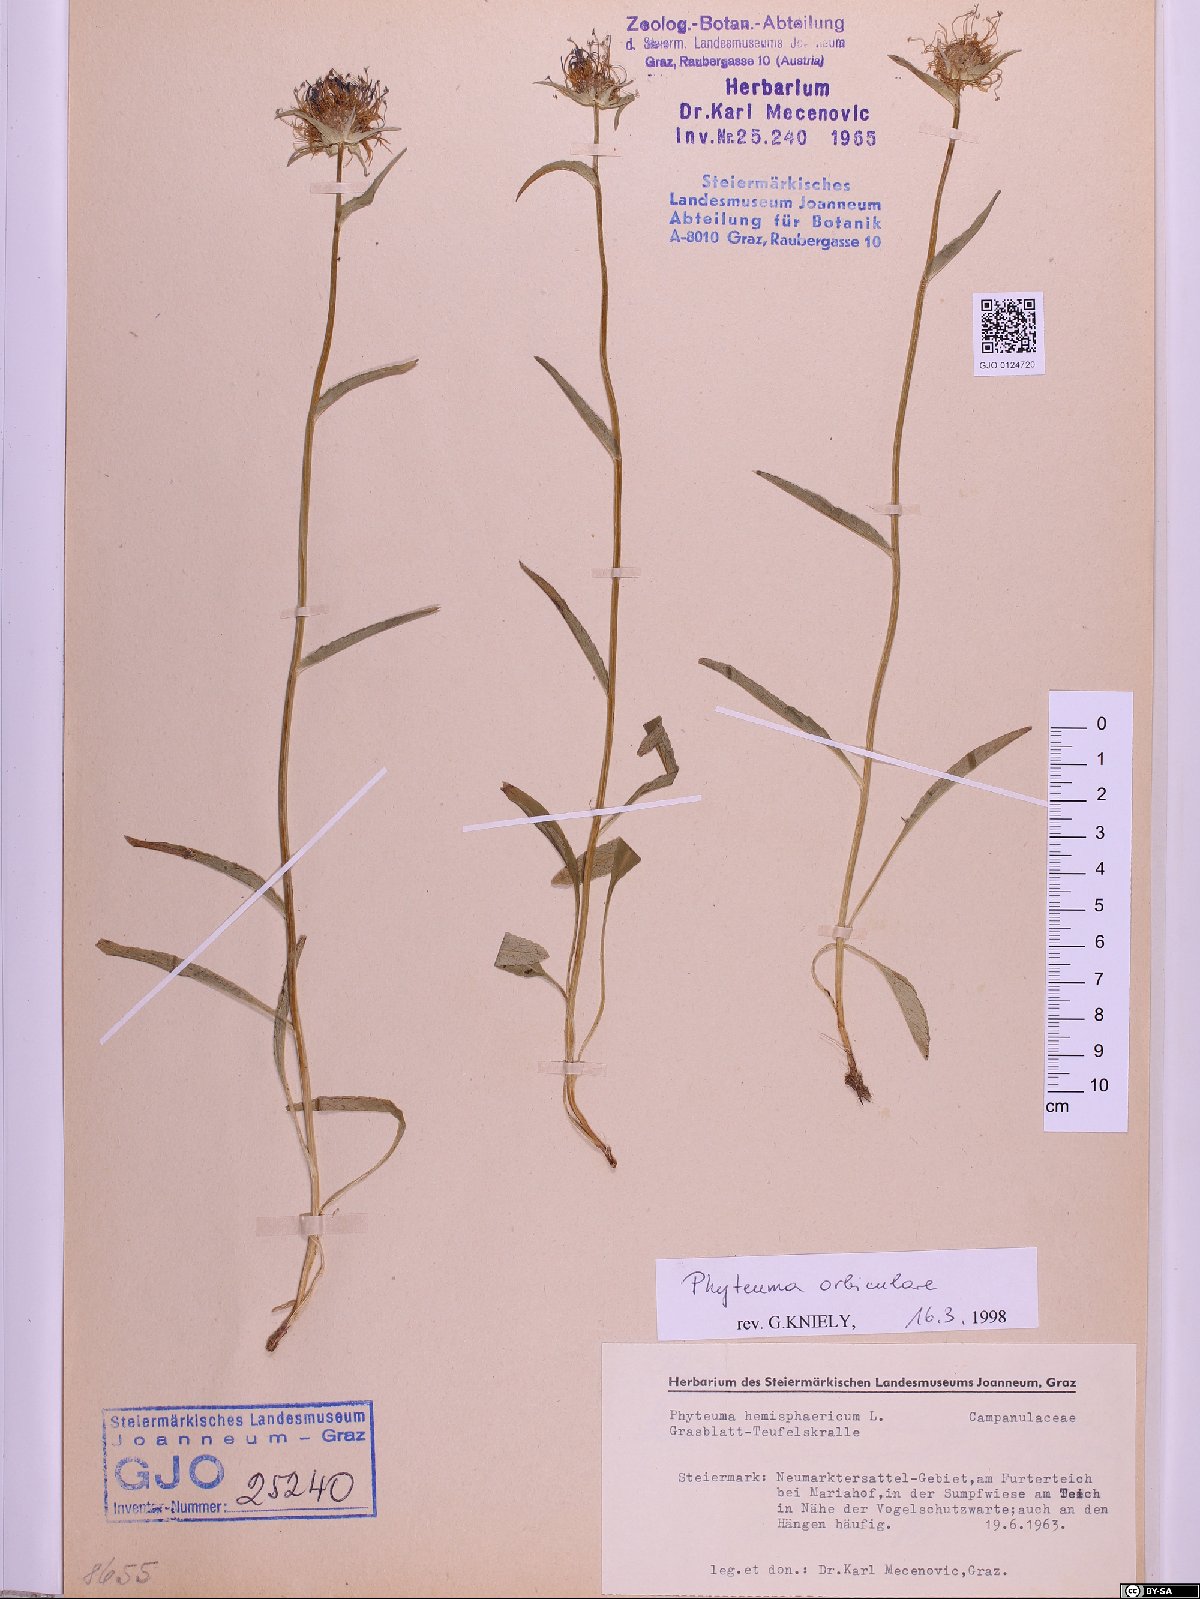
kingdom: Plantae
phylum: Tracheophyta
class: Magnoliopsida
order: Asterales
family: Campanulaceae
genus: Phyteuma
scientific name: Phyteuma orbiculare
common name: Round-headed rampion
